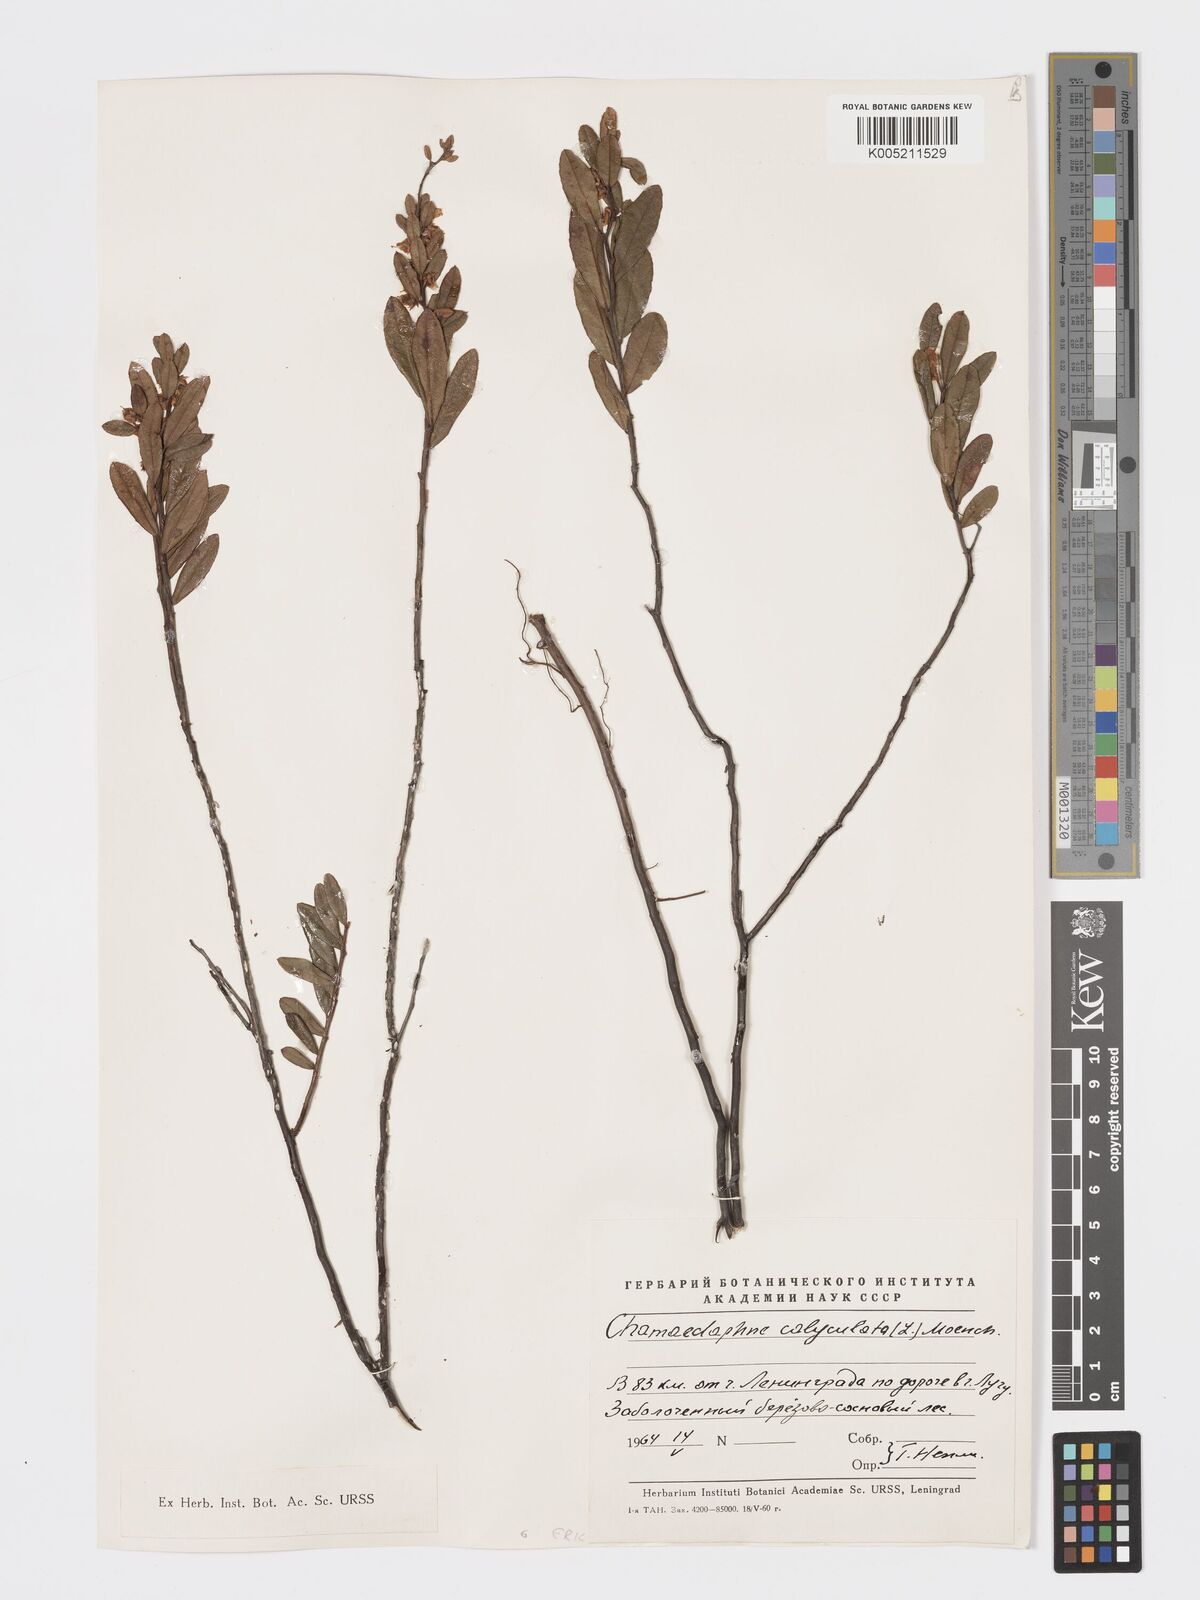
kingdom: Plantae
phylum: Tracheophyta
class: Magnoliopsida
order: Ericales
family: Ericaceae
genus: Chamaedaphne
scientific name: Chamaedaphne calyculata
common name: Leatherleaf
